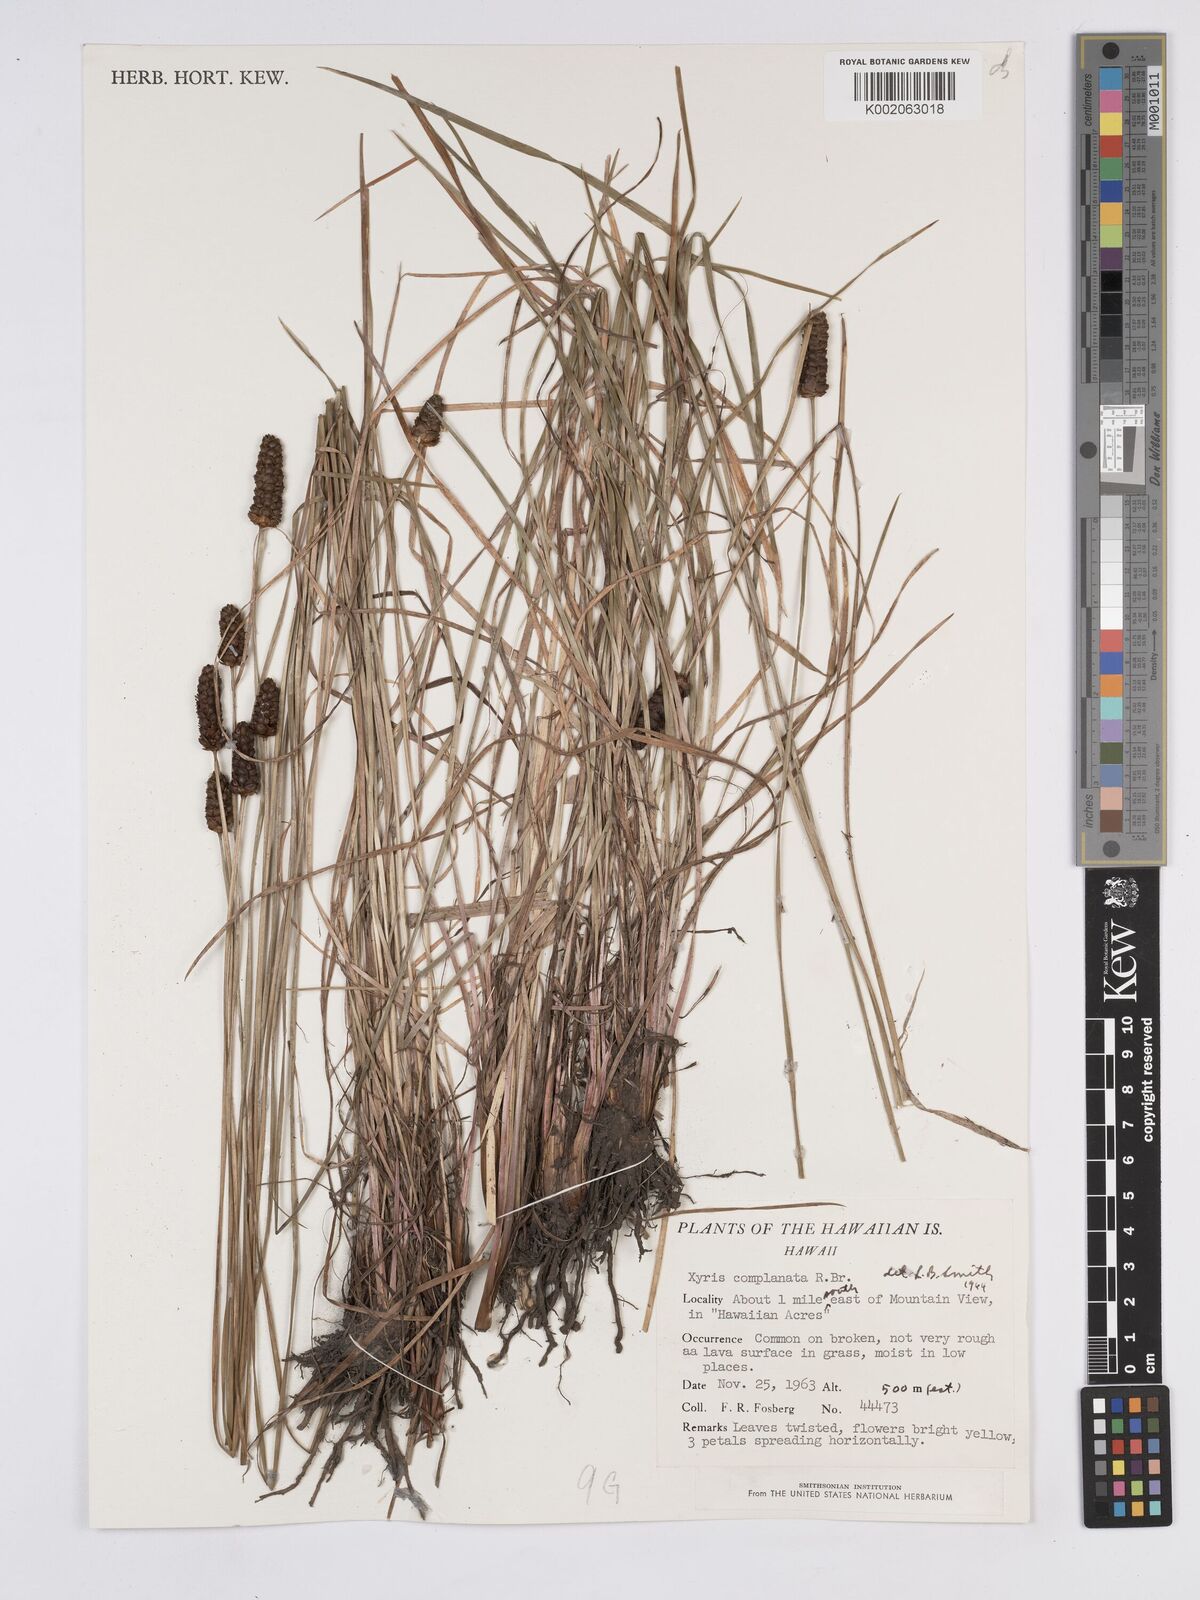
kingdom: Plantae
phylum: Tracheophyta
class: Liliopsida
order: Poales
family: Xyridaceae
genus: Xyris
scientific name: Xyris complanata
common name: Hawai'i yelloweyed grass
